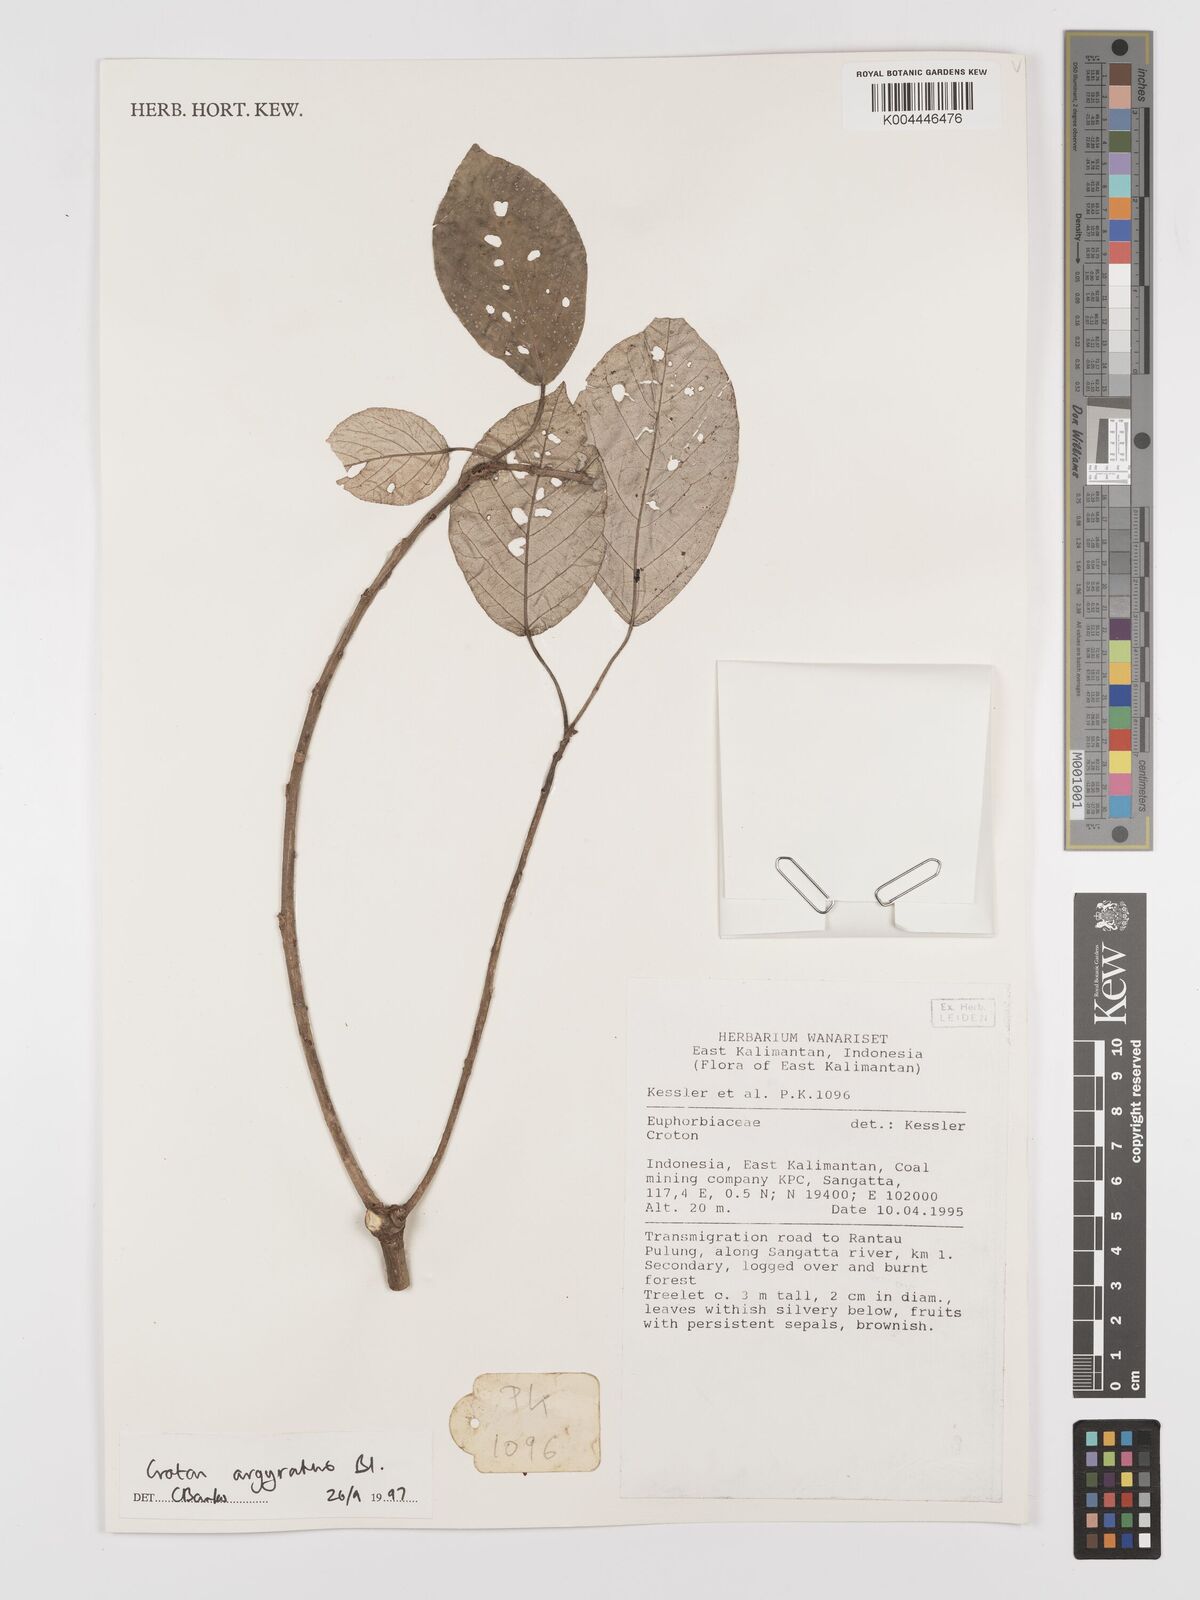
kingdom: Plantae
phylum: Tracheophyta
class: Magnoliopsida
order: Malpighiales
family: Euphorbiaceae
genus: Croton
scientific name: Croton argyratus
